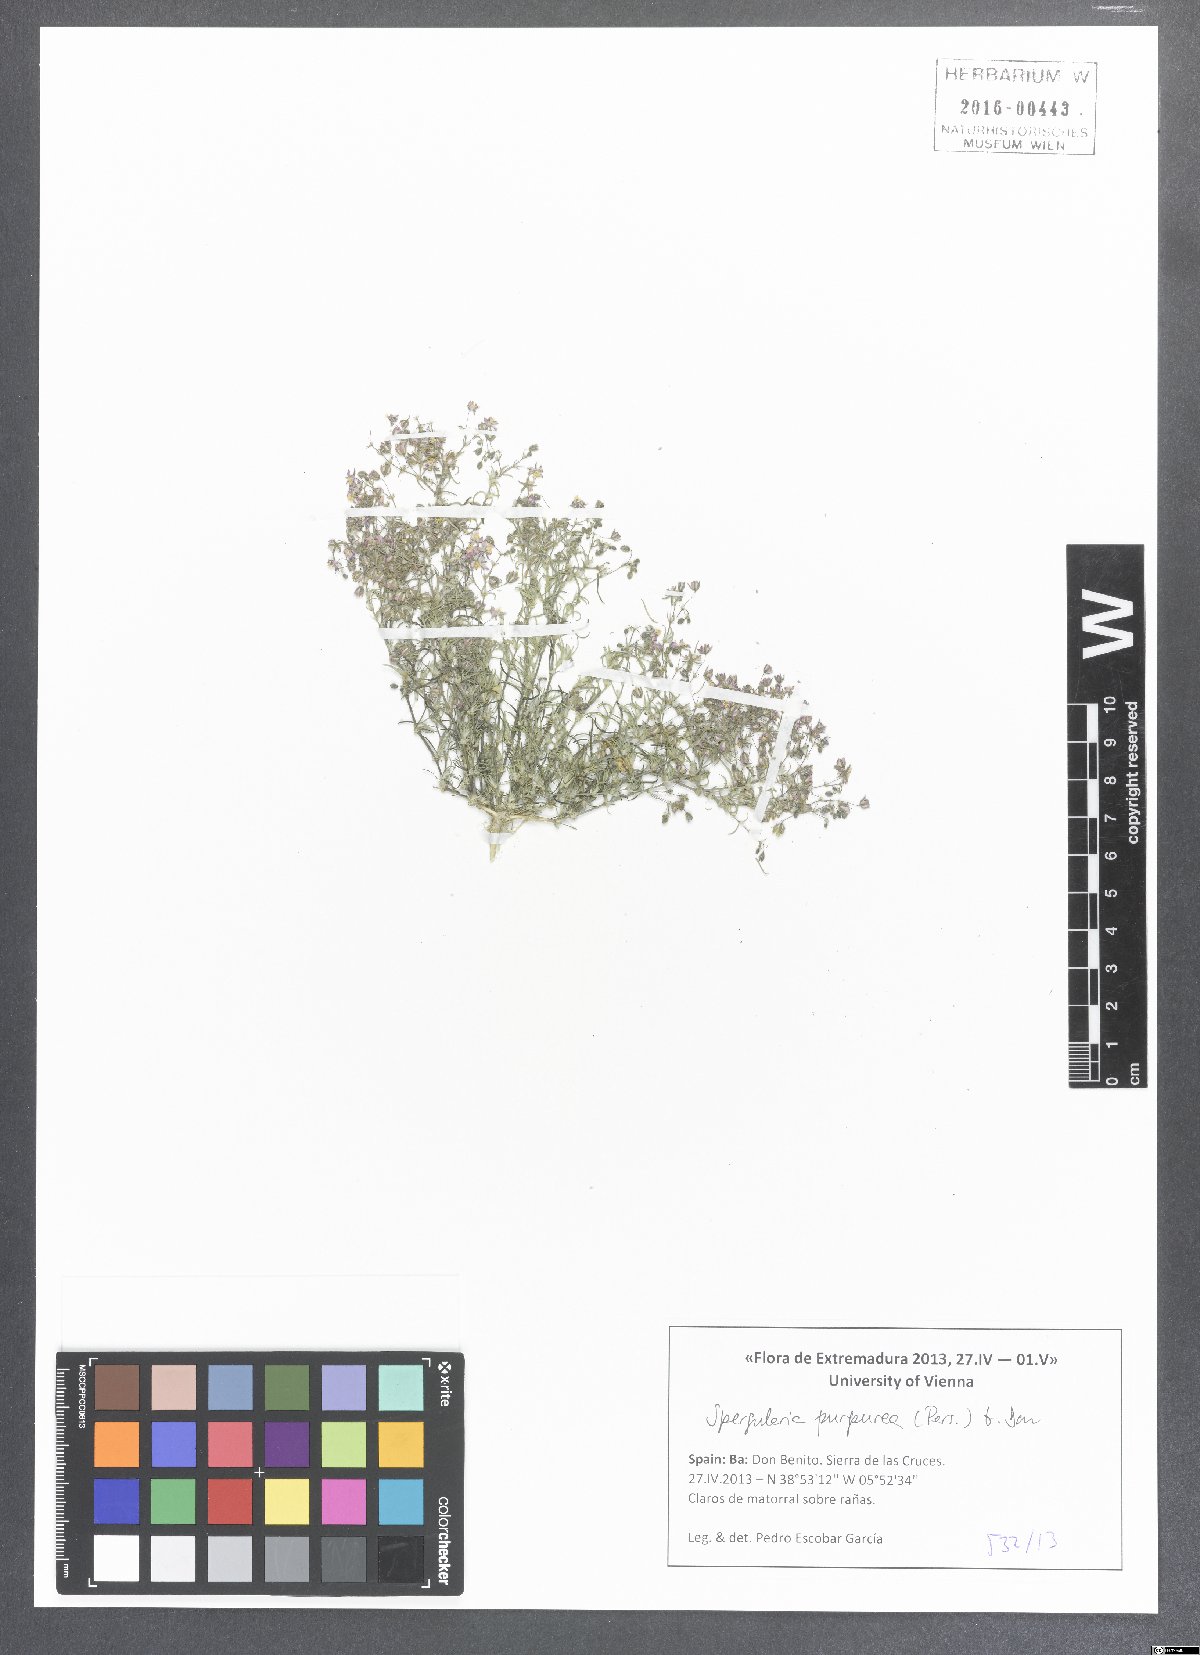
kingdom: Plantae
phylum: Tracheophyta
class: Magnoliopsida
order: Caryophyllales
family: Caryophyllaceae
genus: Spergularia
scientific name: Spergularia purpurea
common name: Purple sandspurry
